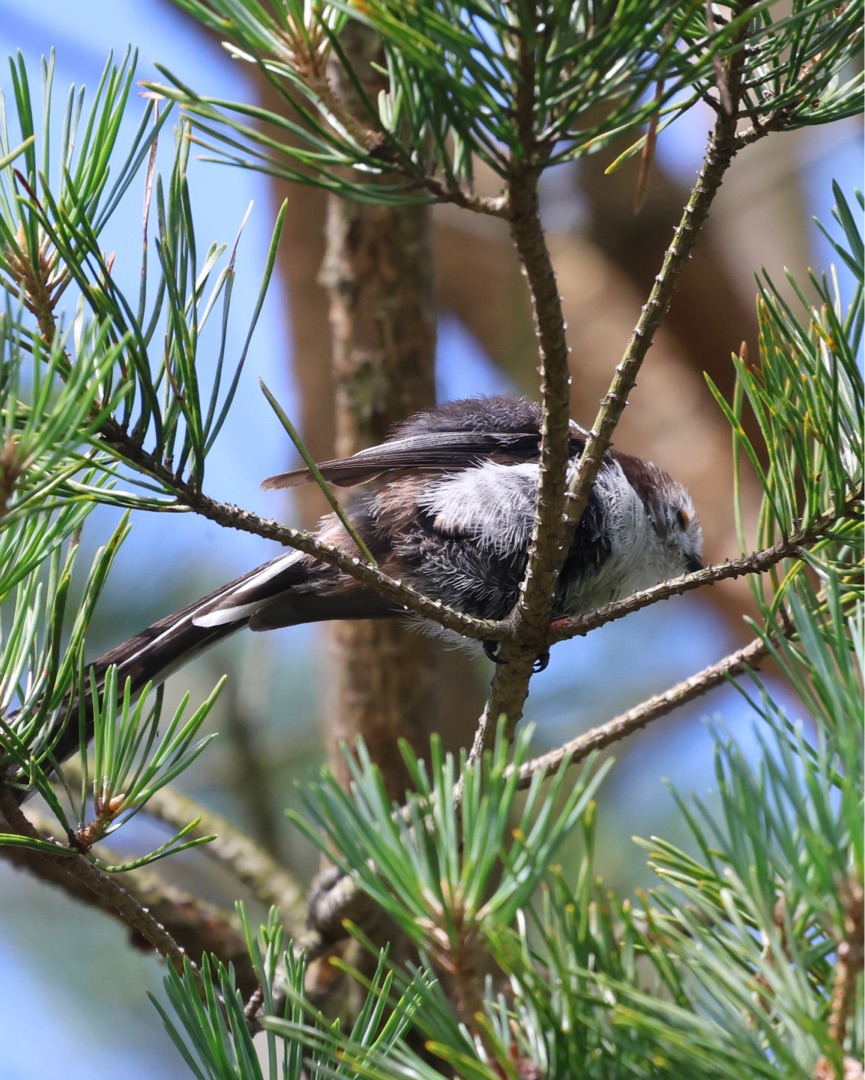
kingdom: Animalia
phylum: Chordata
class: Aves
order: Passeriformes
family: Aegithalidae
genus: Aegithalos
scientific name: Aegithalos caudatus
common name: Halemejse
